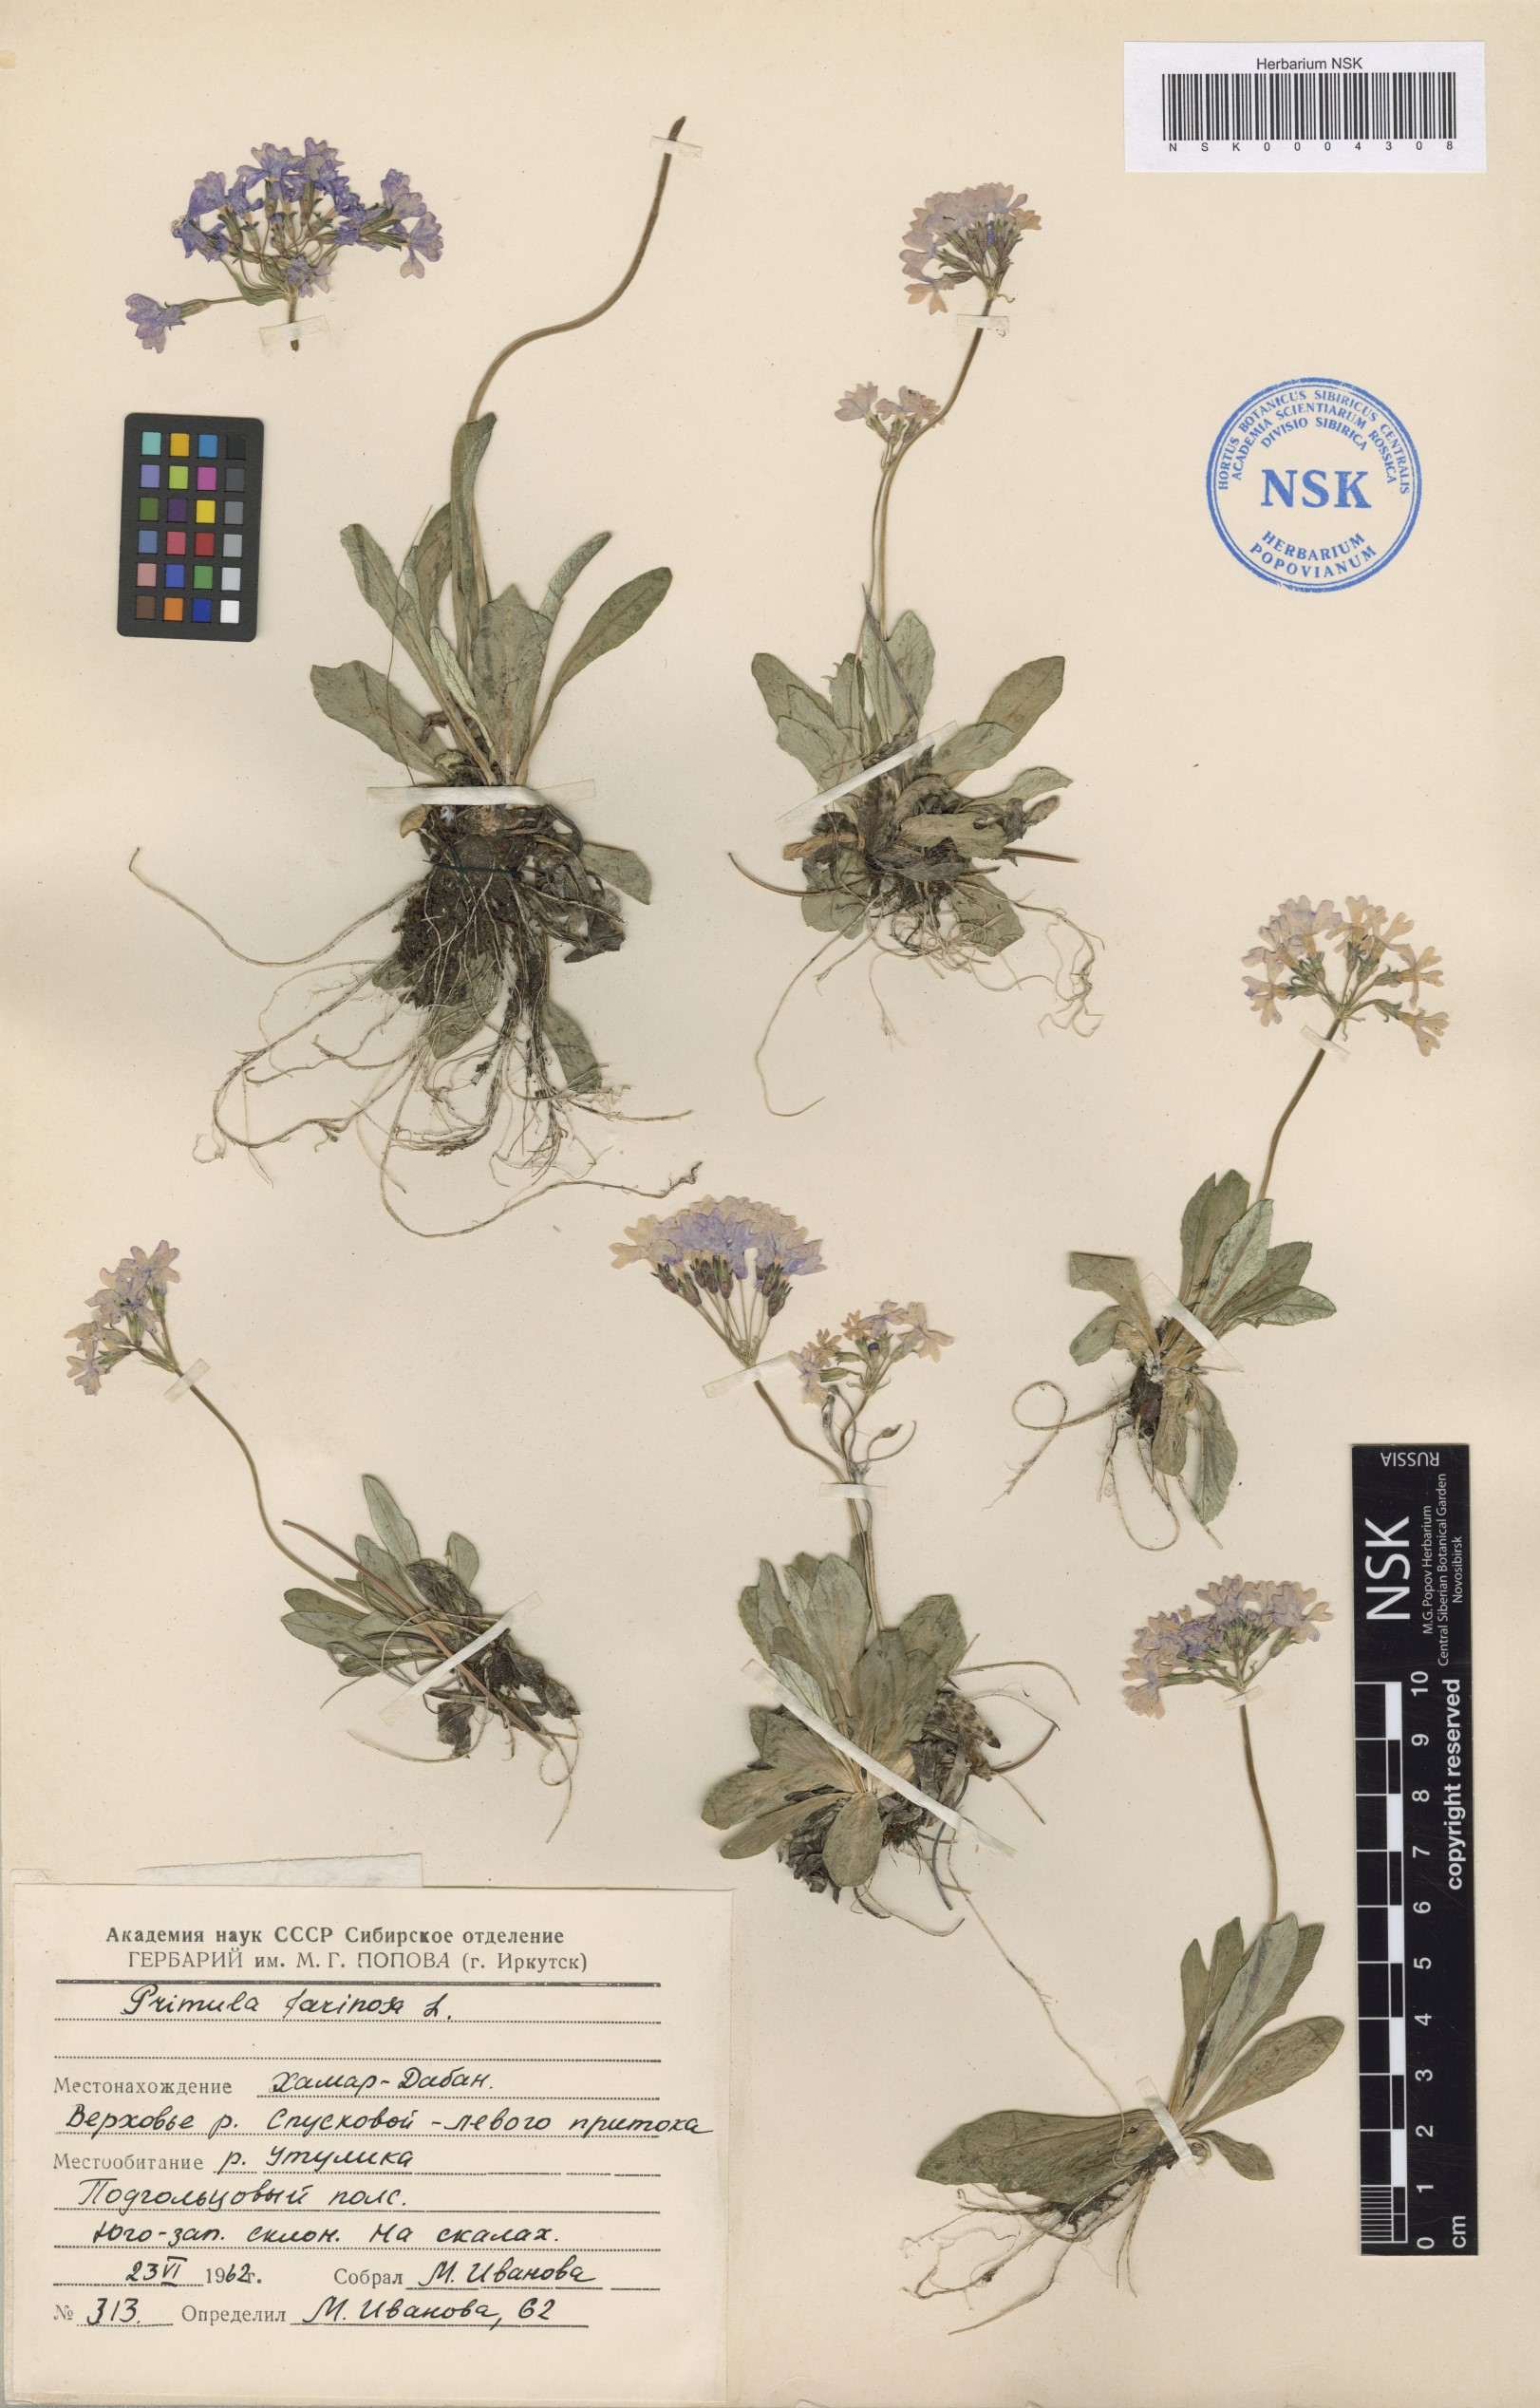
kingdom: Plantae
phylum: Tracheophyta
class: Magnoliopsida
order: Ericales
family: Primulaceae
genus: Primula
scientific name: Primula farinosa
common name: Bird's-eye primrose
